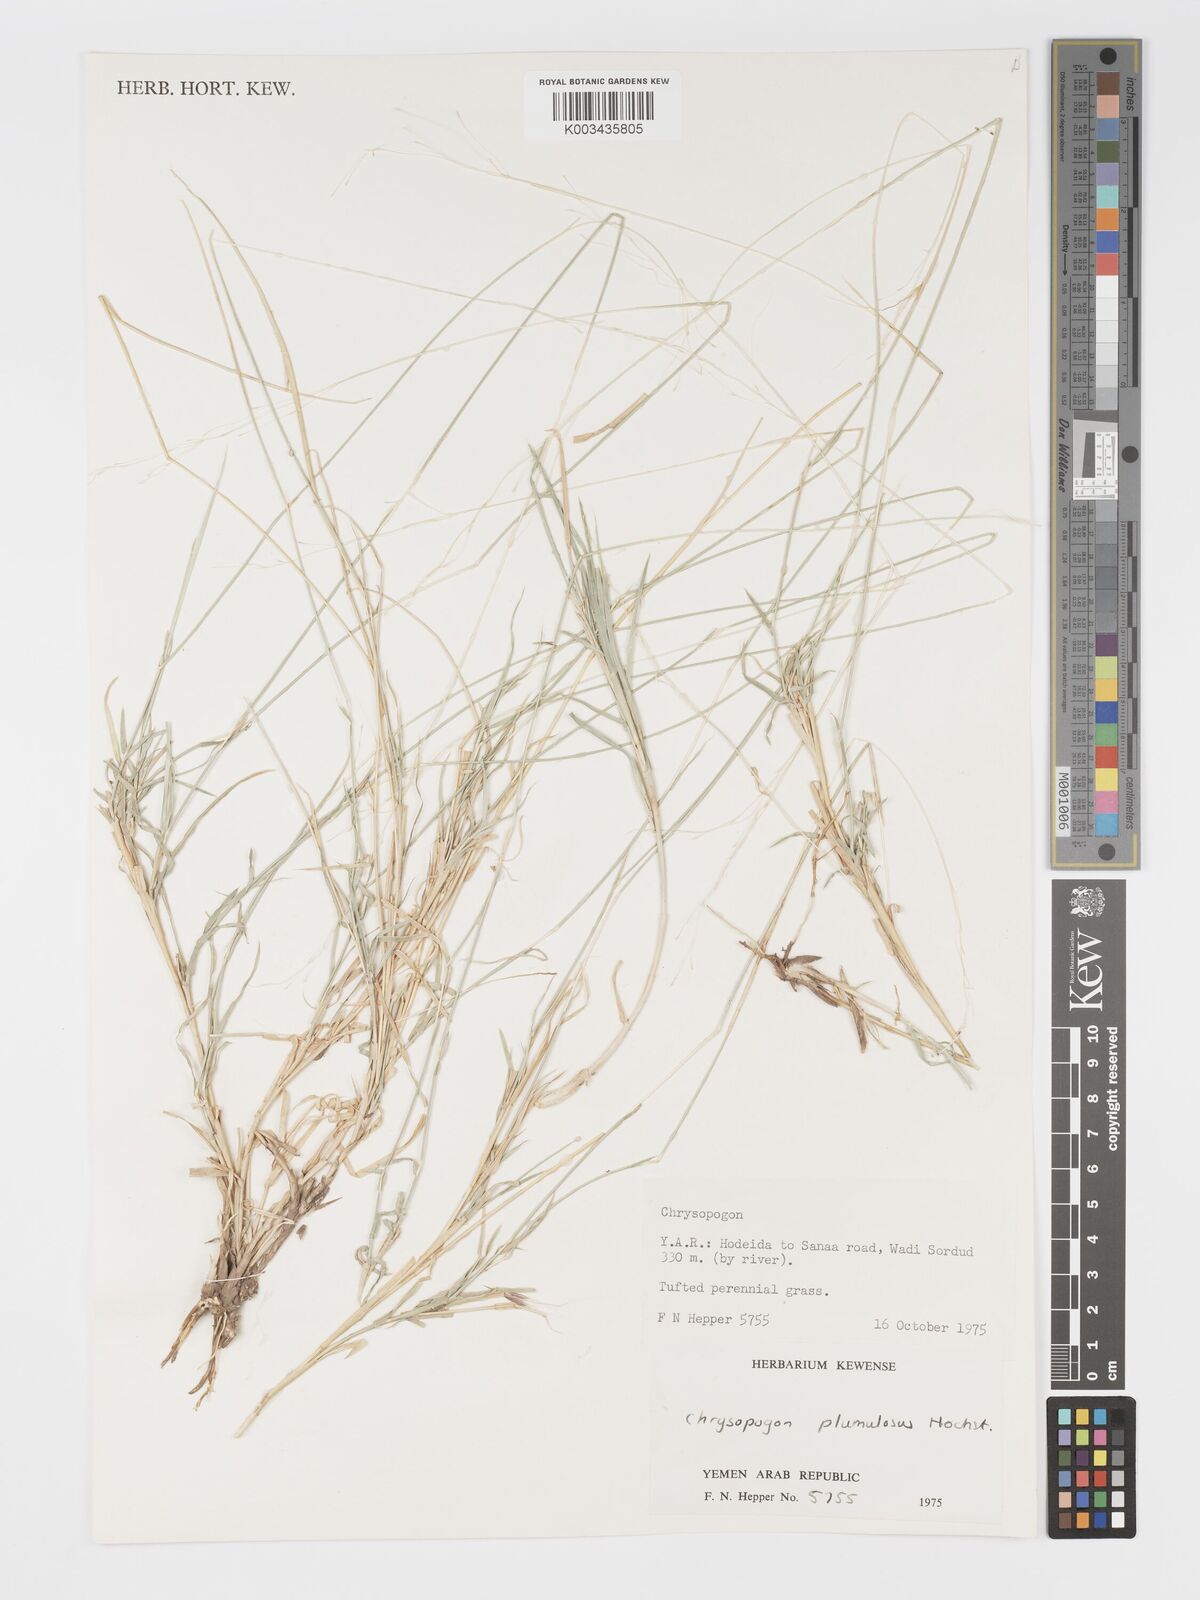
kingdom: Plantae
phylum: Tracheophyta
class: Liliopsida
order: Poales
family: Poaceae
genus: Chrysopogon
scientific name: Chrysopogon plumulosus
